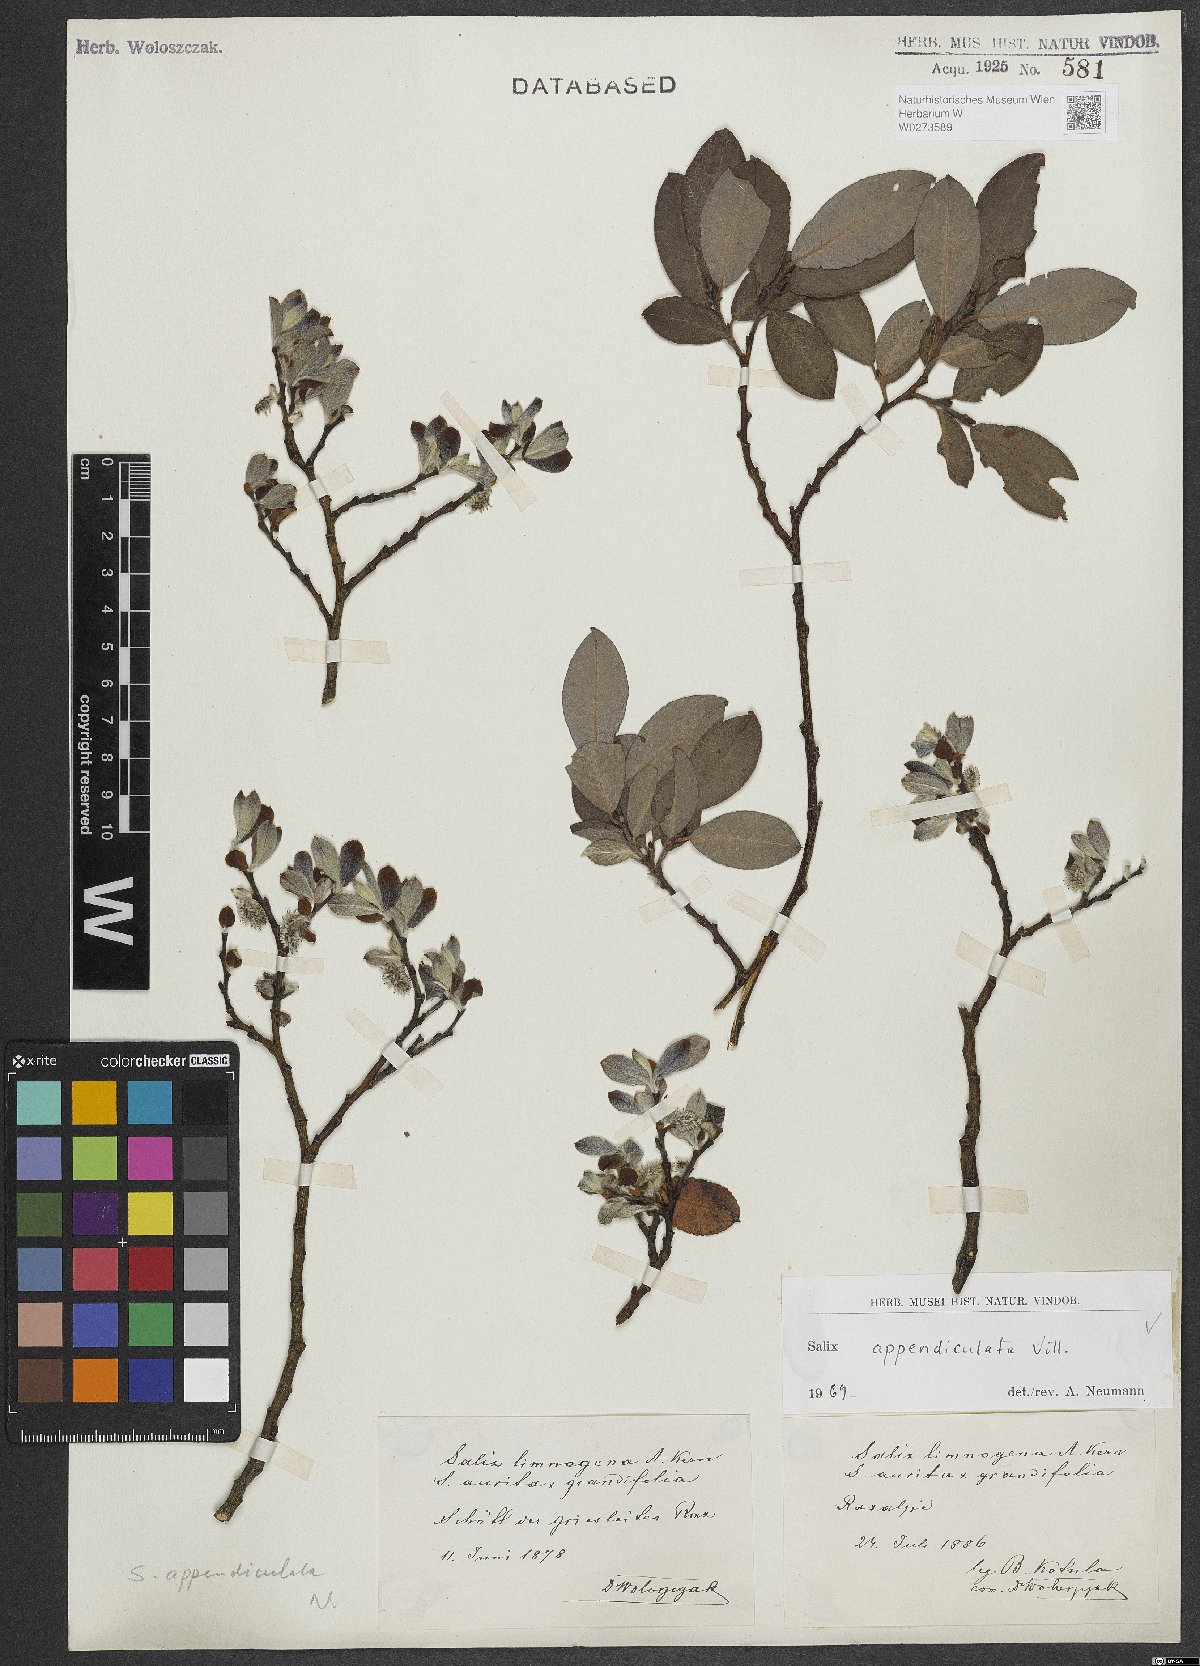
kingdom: Plantae
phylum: Tracheophyta
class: Magnoliopsida
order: Malpighiales
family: Salicaceae
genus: Salix
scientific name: Salix appendiculata
